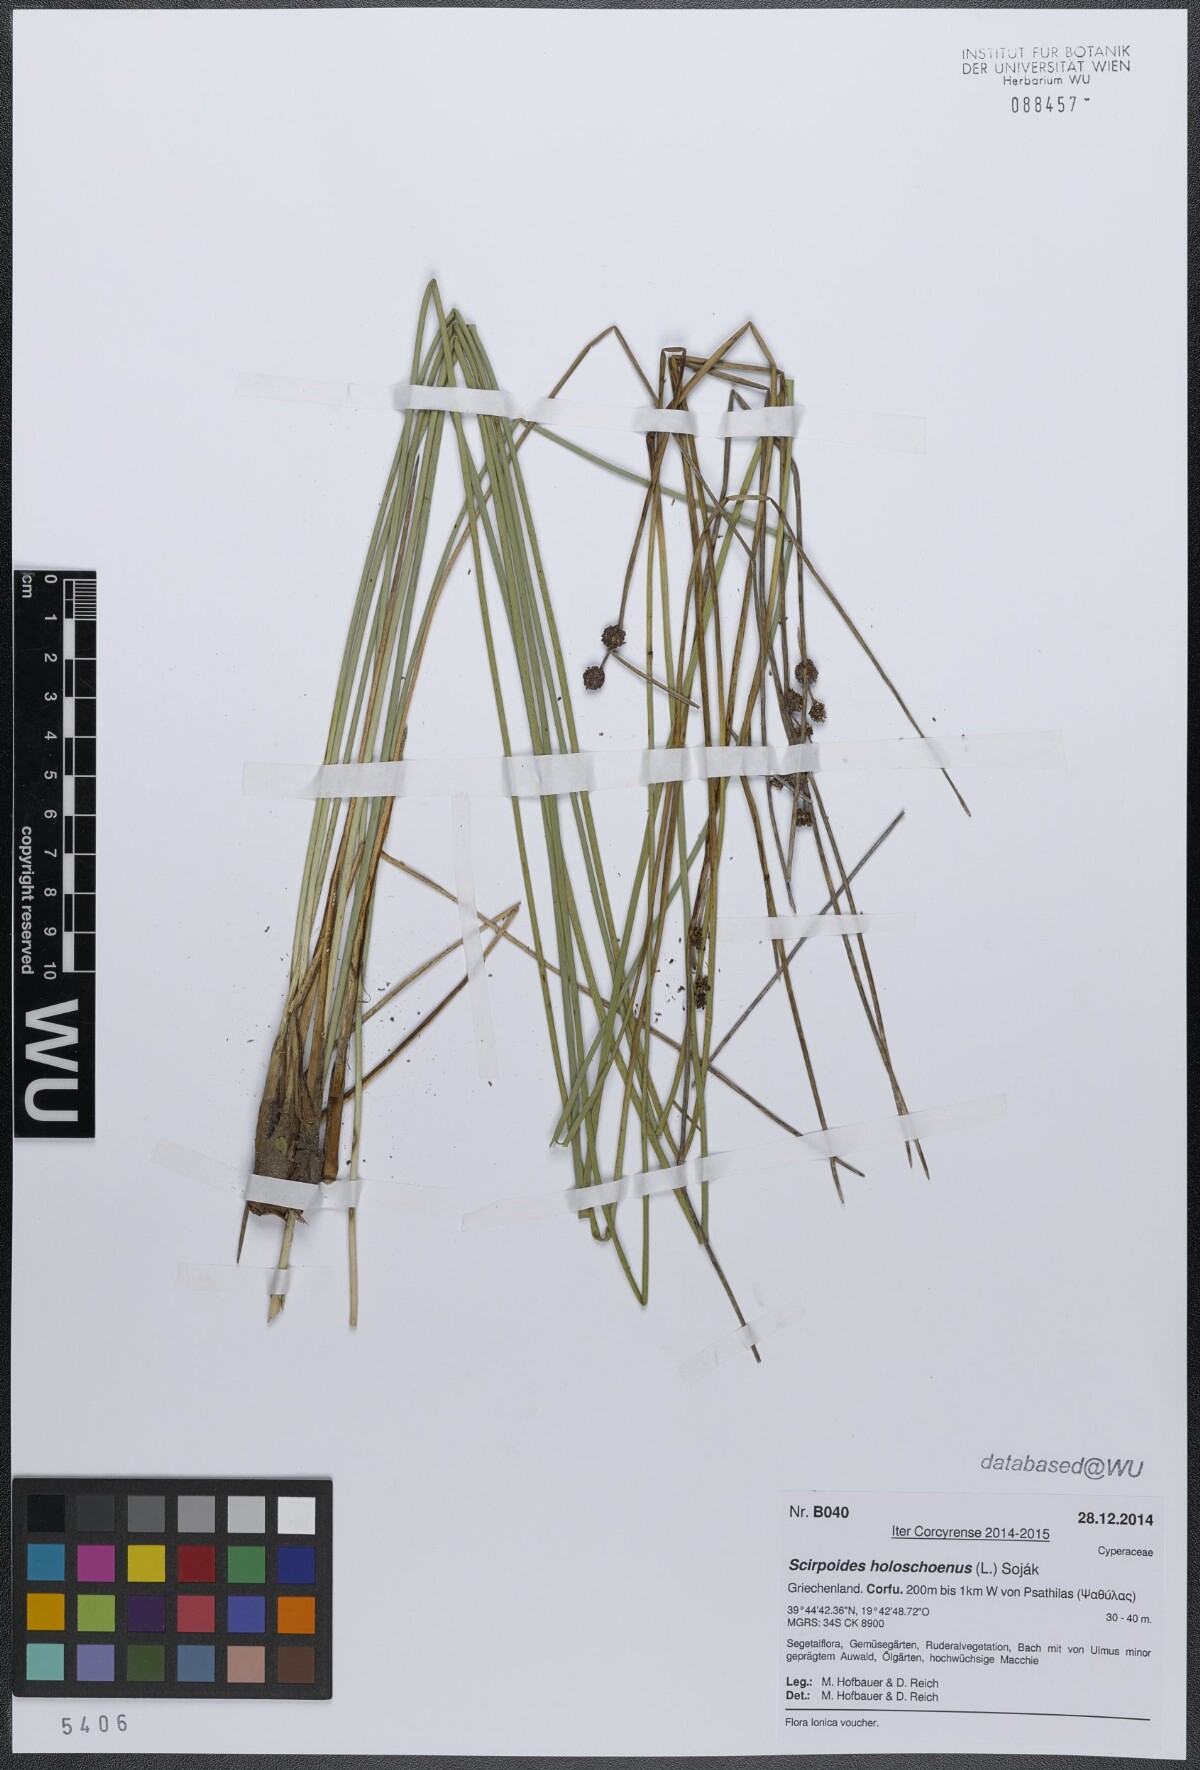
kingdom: Plantae
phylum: Tracheophyta
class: Liliopsida
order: Poales
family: Cyperaceae
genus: Scirpoides
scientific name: Scirpoides holoschoenus
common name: Round-headed club-rush
